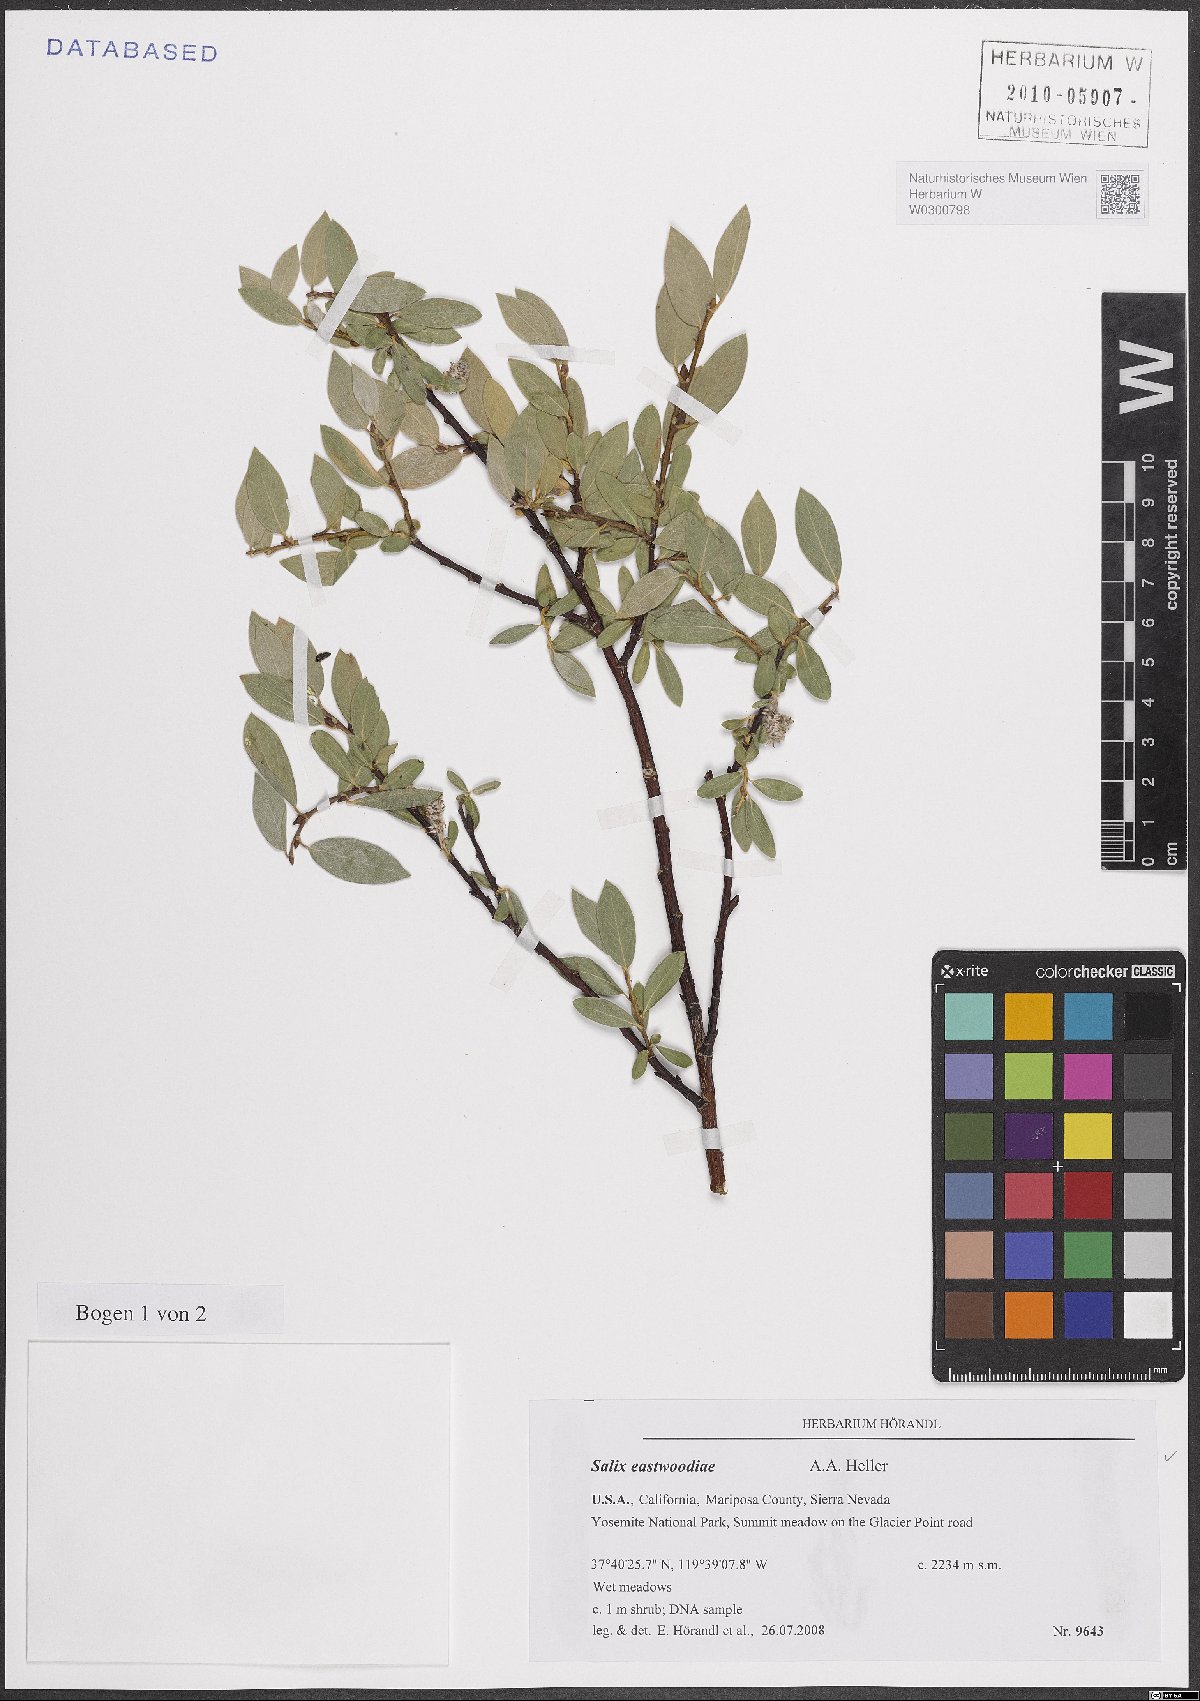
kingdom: Plantae
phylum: Tracheophyta
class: Magnoliopsida
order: Malpighiales
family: Salicaceae
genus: Salix
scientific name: Salix eastwoodiae
